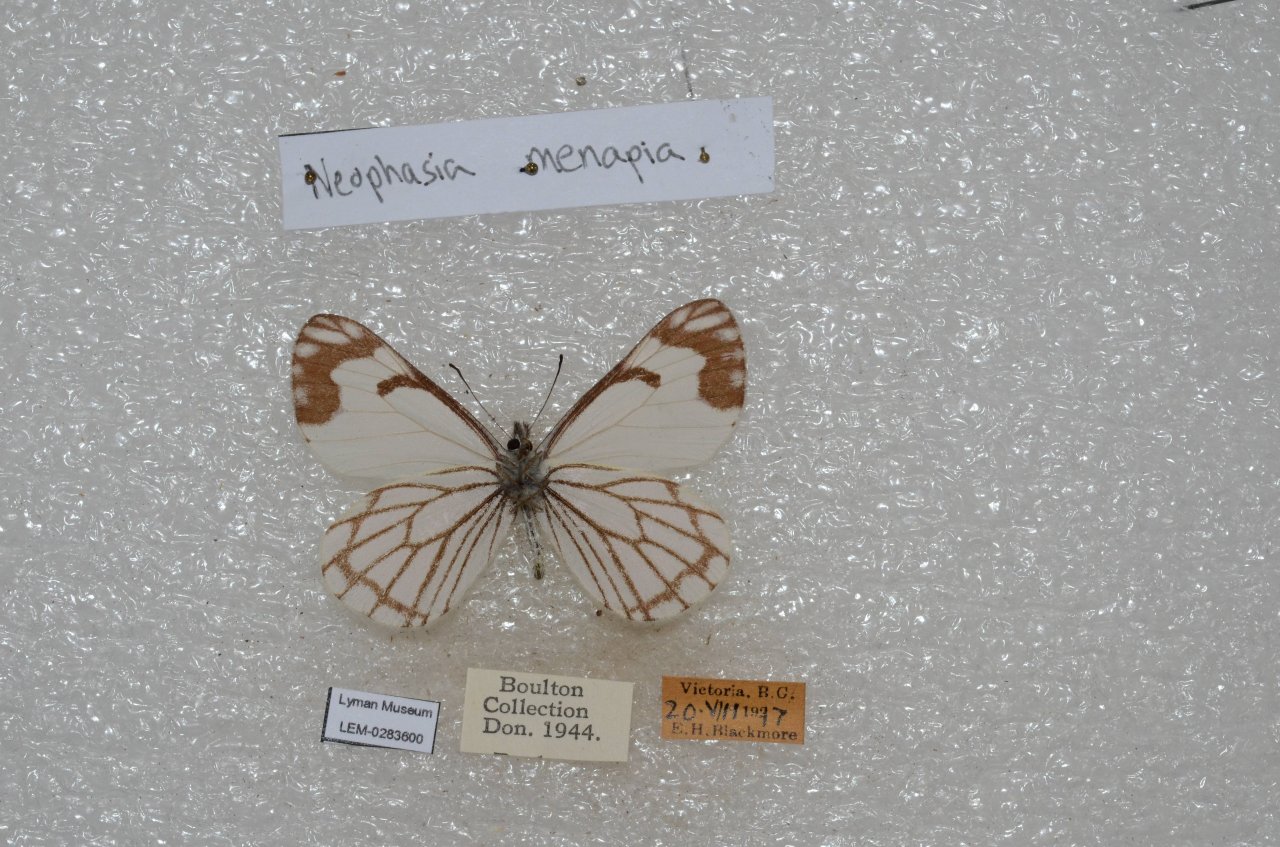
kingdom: Animalia
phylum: Arthropoda
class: Insecta
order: Lepidoptera
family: Pieridae
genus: Neophasia
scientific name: Neophasia menapia
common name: Pine White
